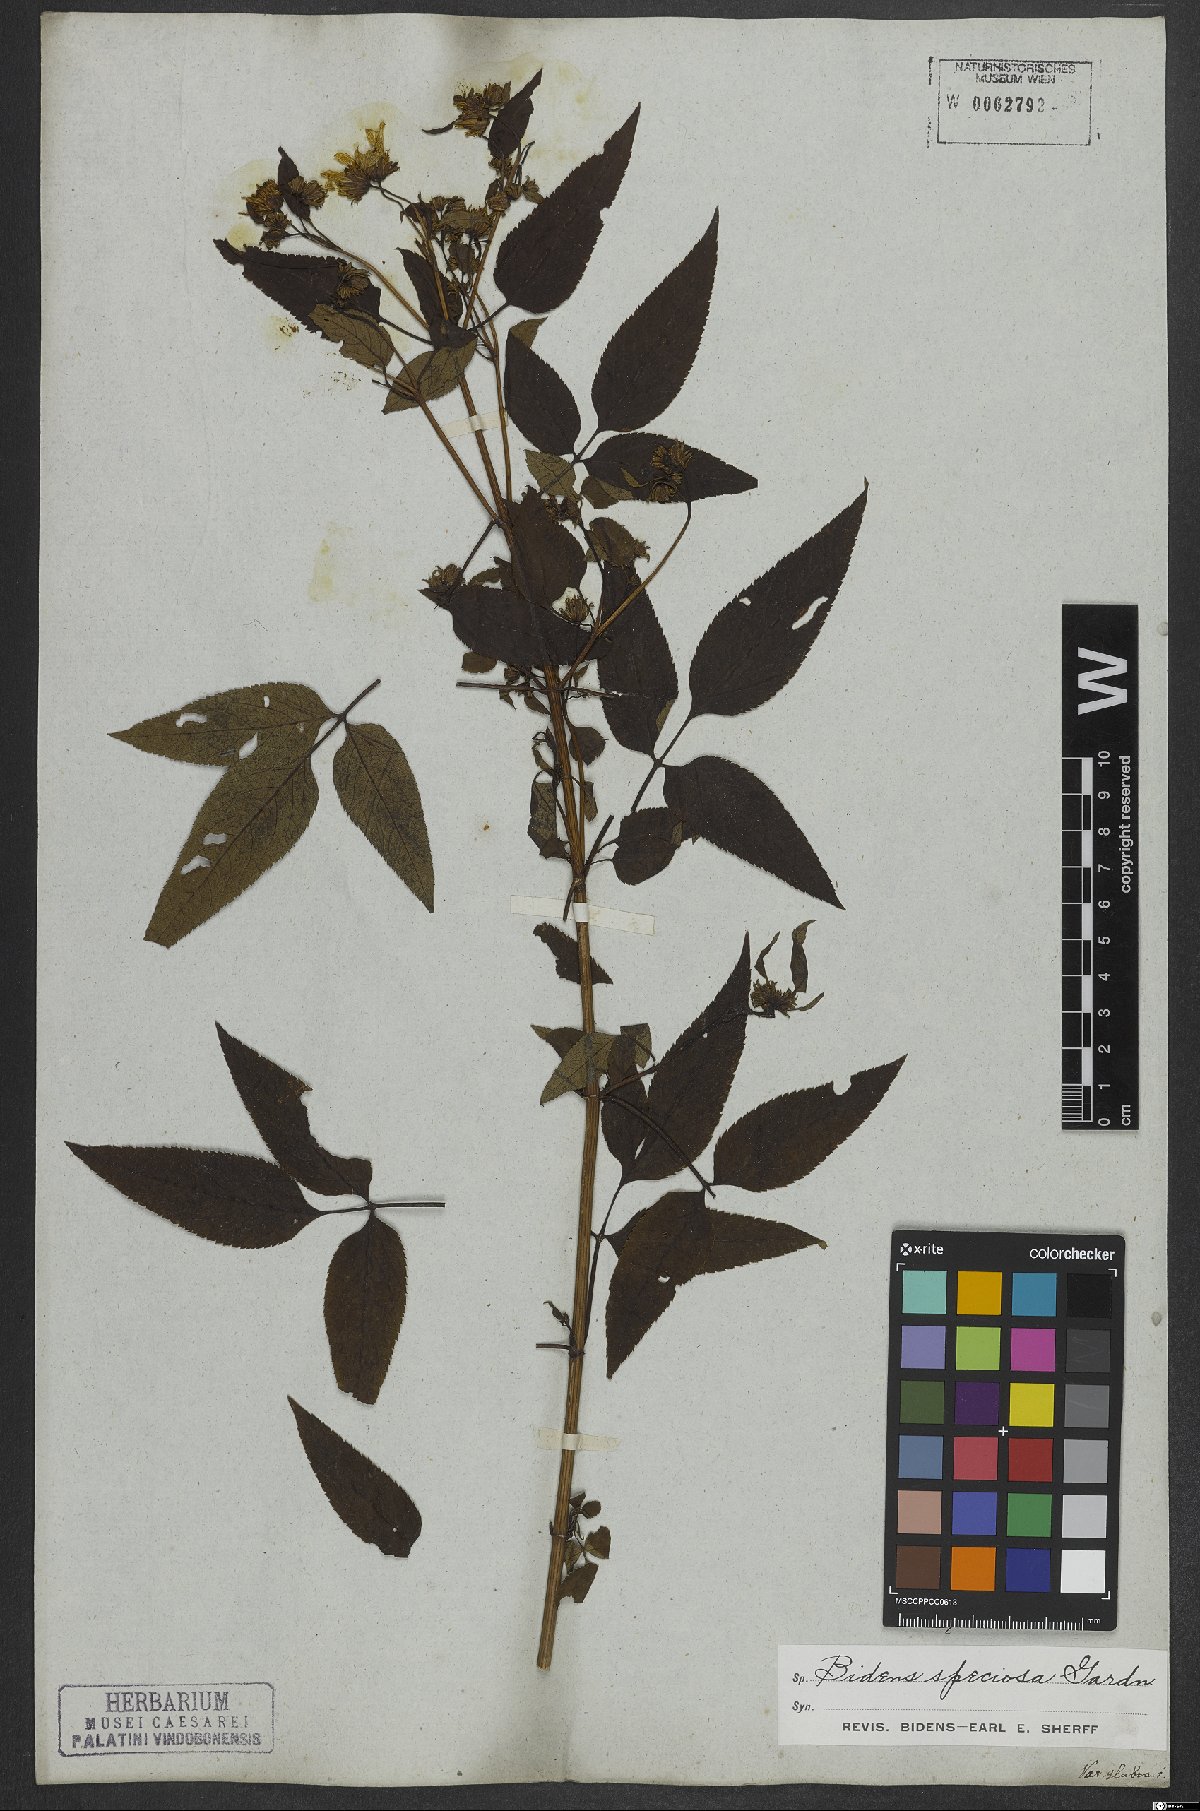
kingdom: Plantae
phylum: Tracheophyta
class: Magnoliopsida
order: Asterales
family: Asteraceae
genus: Bidens
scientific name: Bidens segetum
